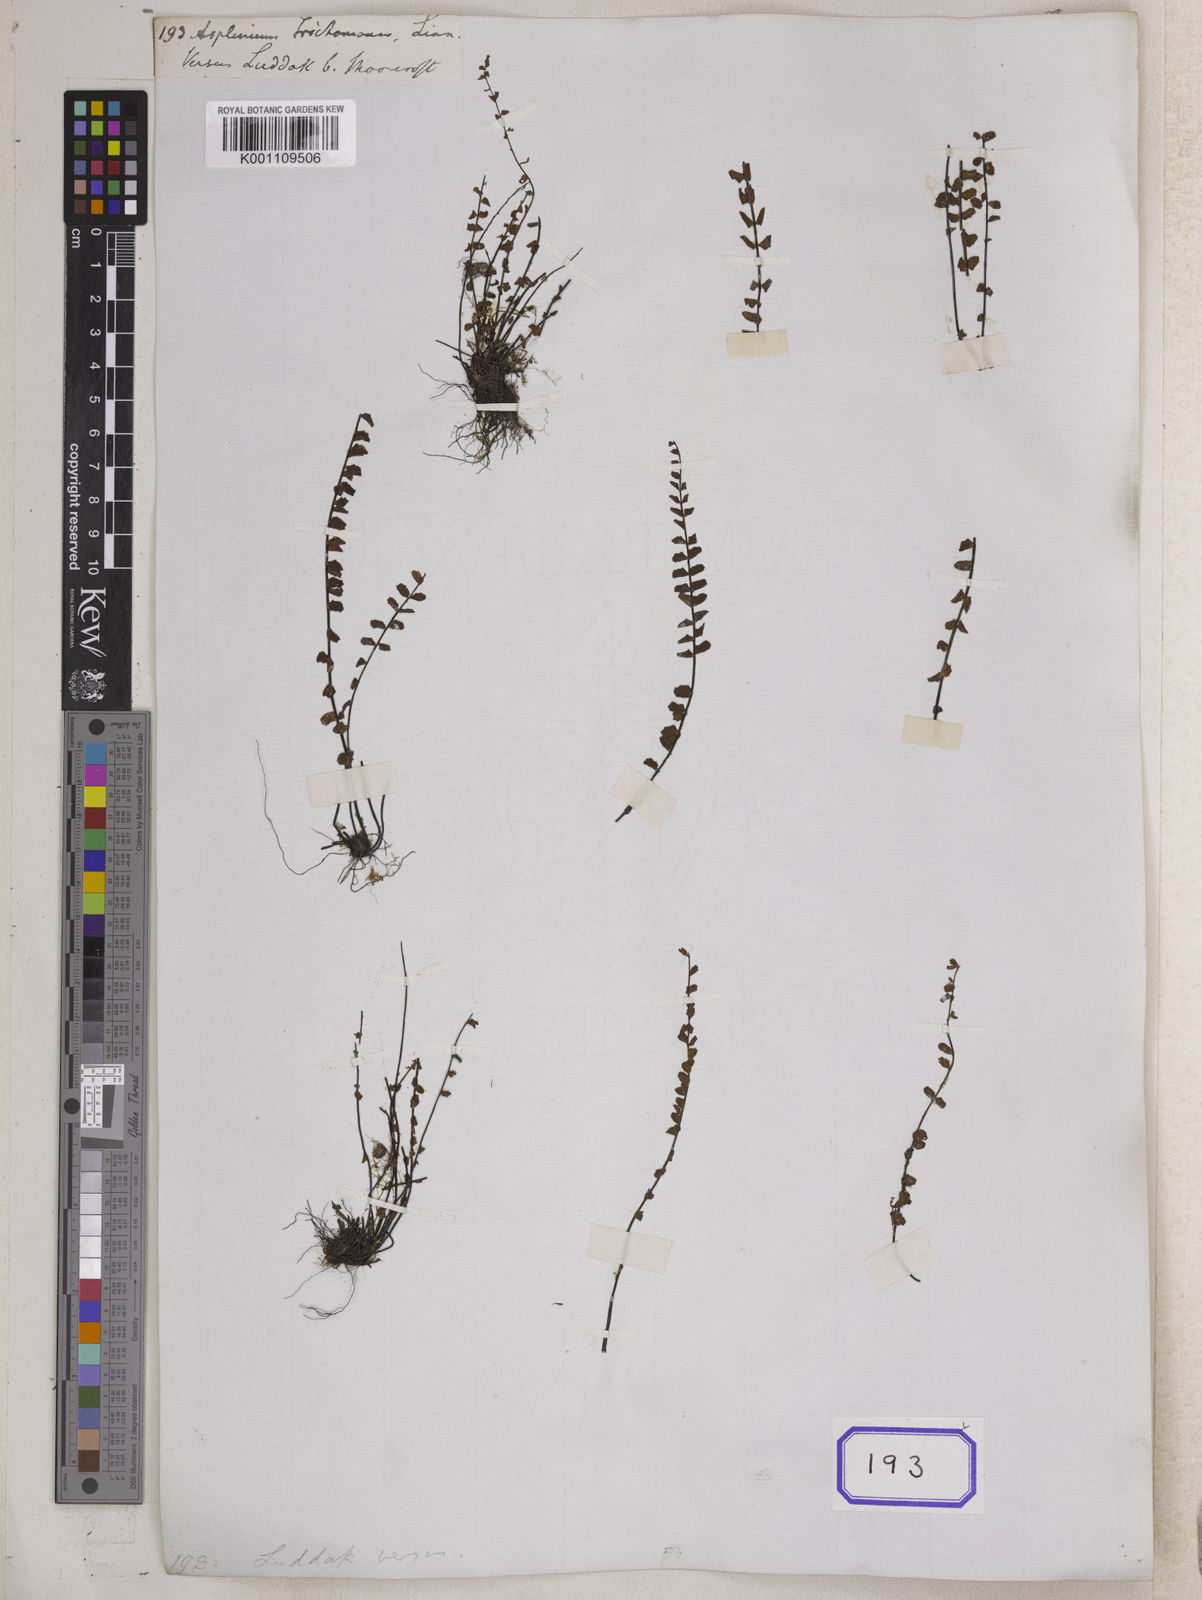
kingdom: Plantae
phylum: Tracheophyta
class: Polypodiopsida
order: Polypodiales
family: Aspleniaceae
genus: Asplenium
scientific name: Asplenium trichomanes
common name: Maidenhair spleenwort
